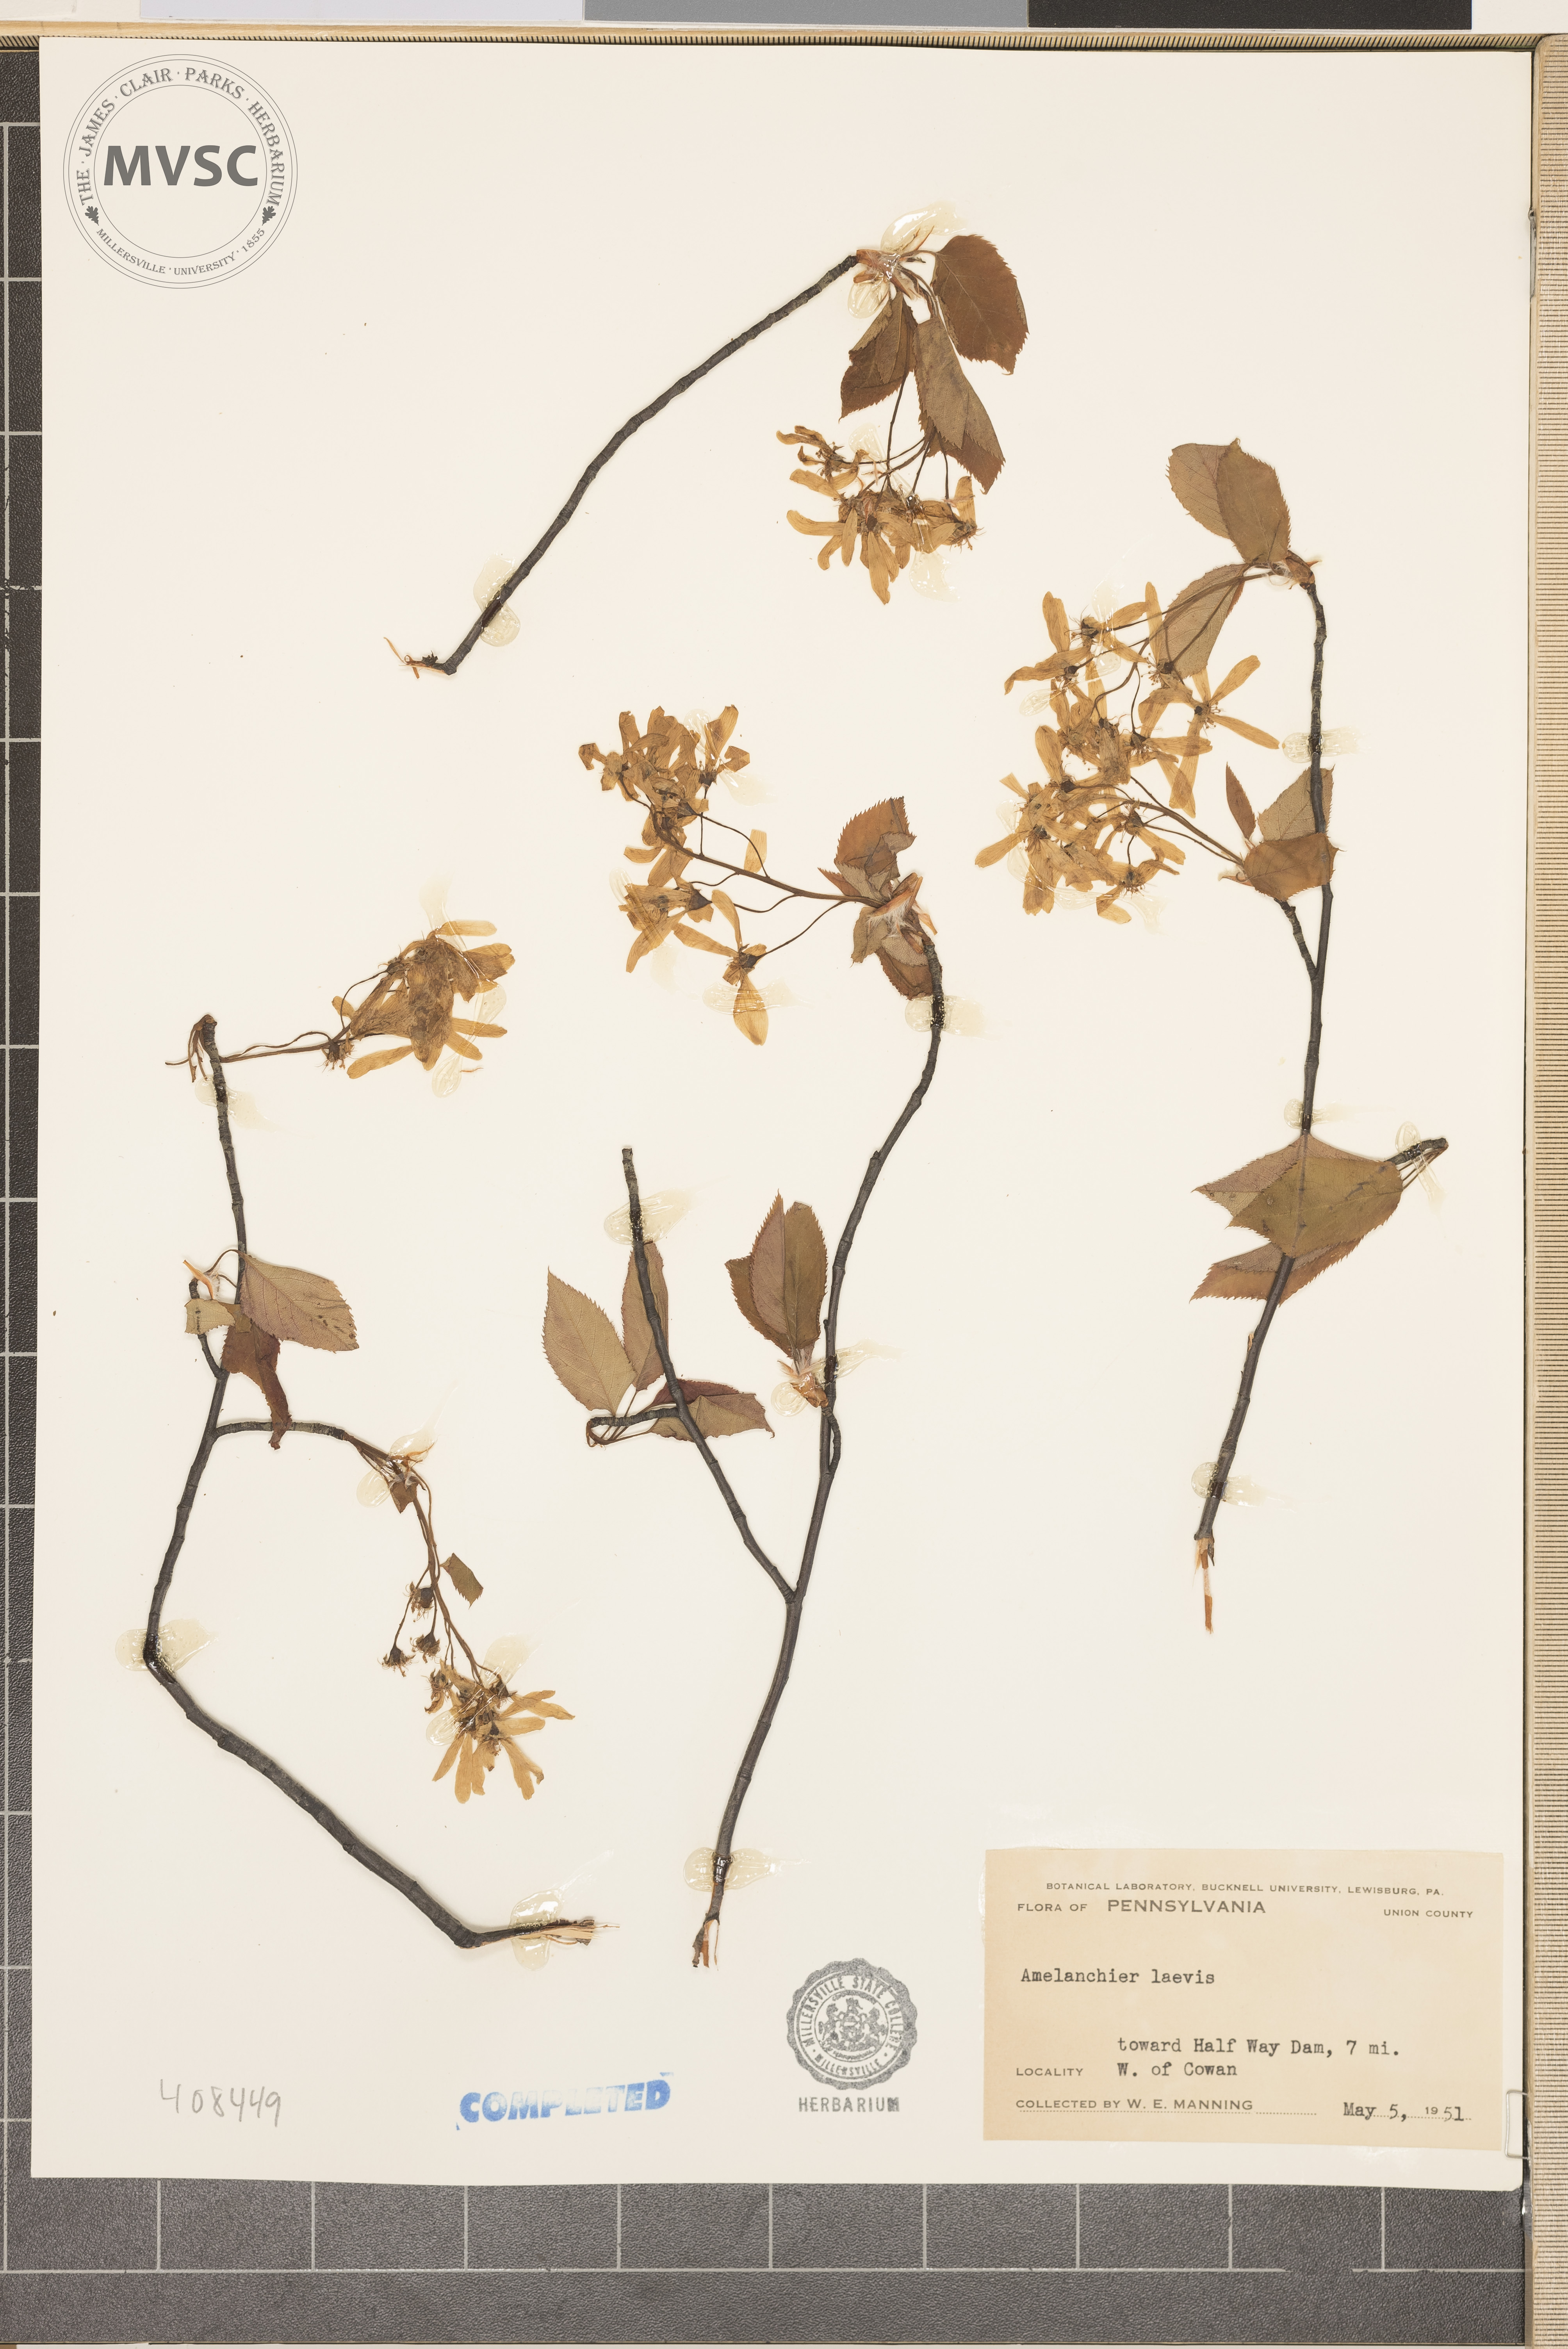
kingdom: Plantae
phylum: Tracheophyta
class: Magnoliopsida
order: Rosales
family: Rosaceae
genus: Amelanchier
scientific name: Amelanchier laevis
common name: Allegheny serviceberry
